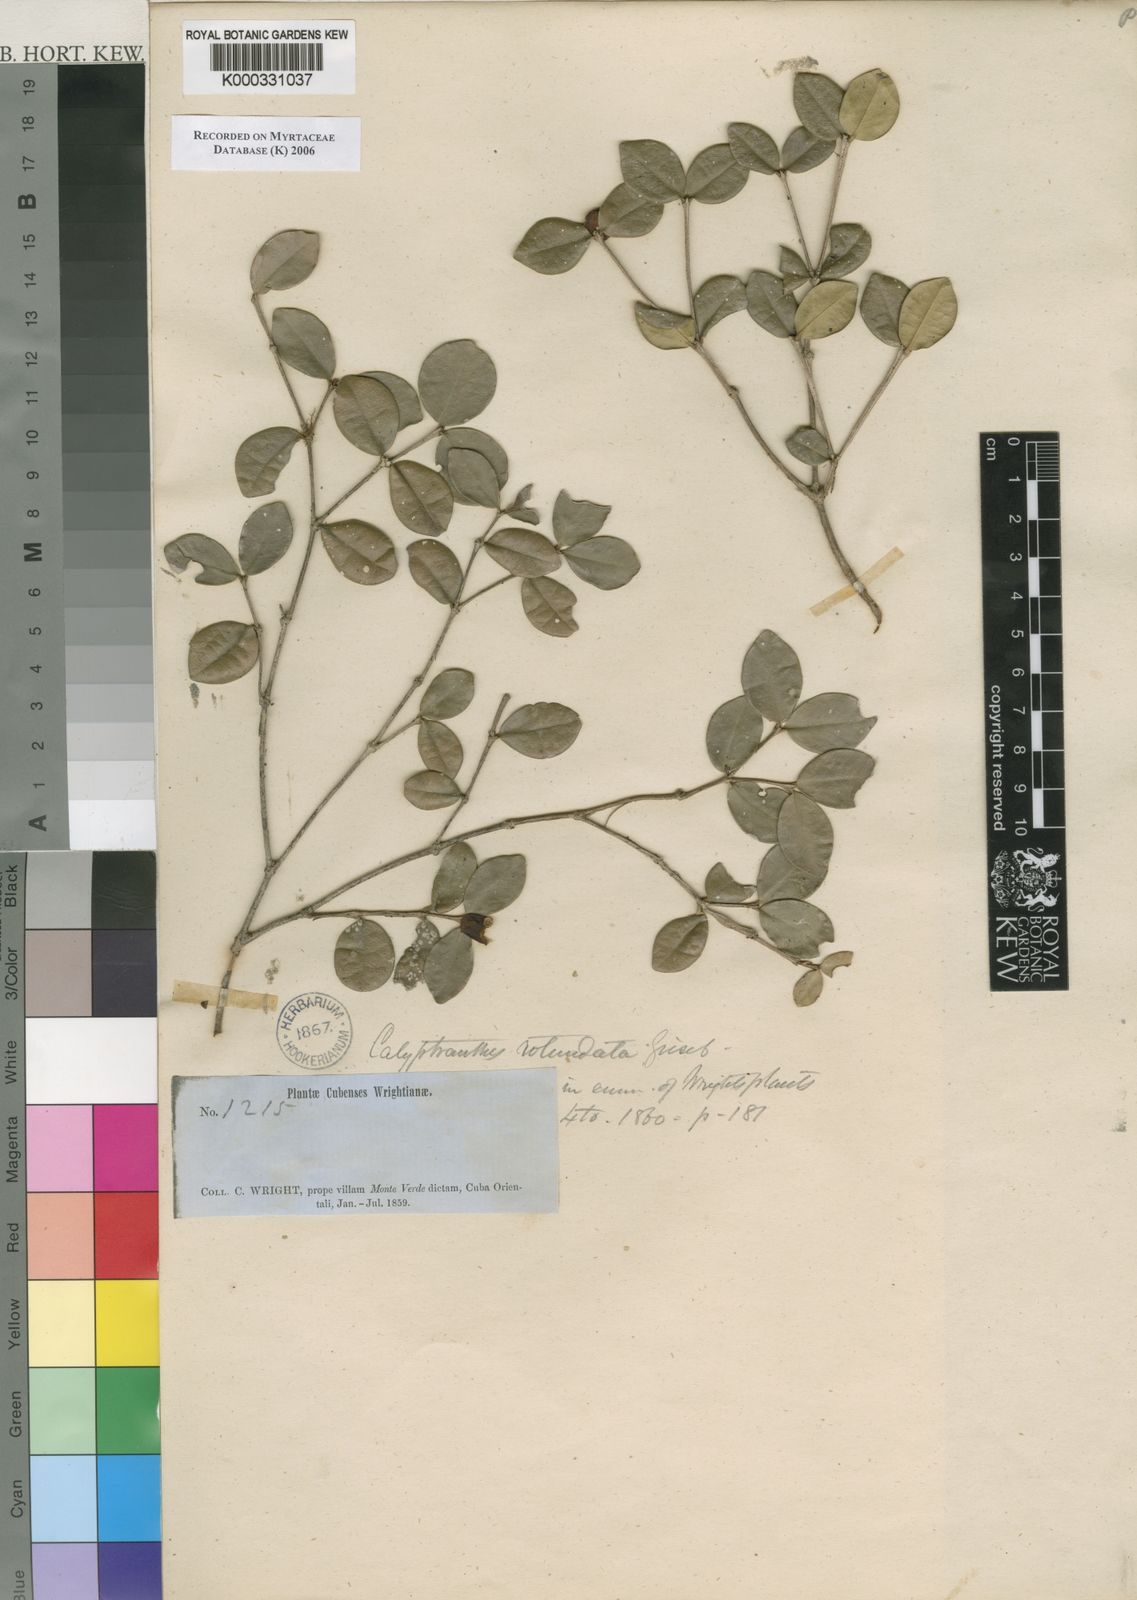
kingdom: Plantae
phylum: Tracheophyta
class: Magnoliopsida
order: Myrtales
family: Myrtaceae
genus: Myrcia
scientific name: Myrcia circumdata
